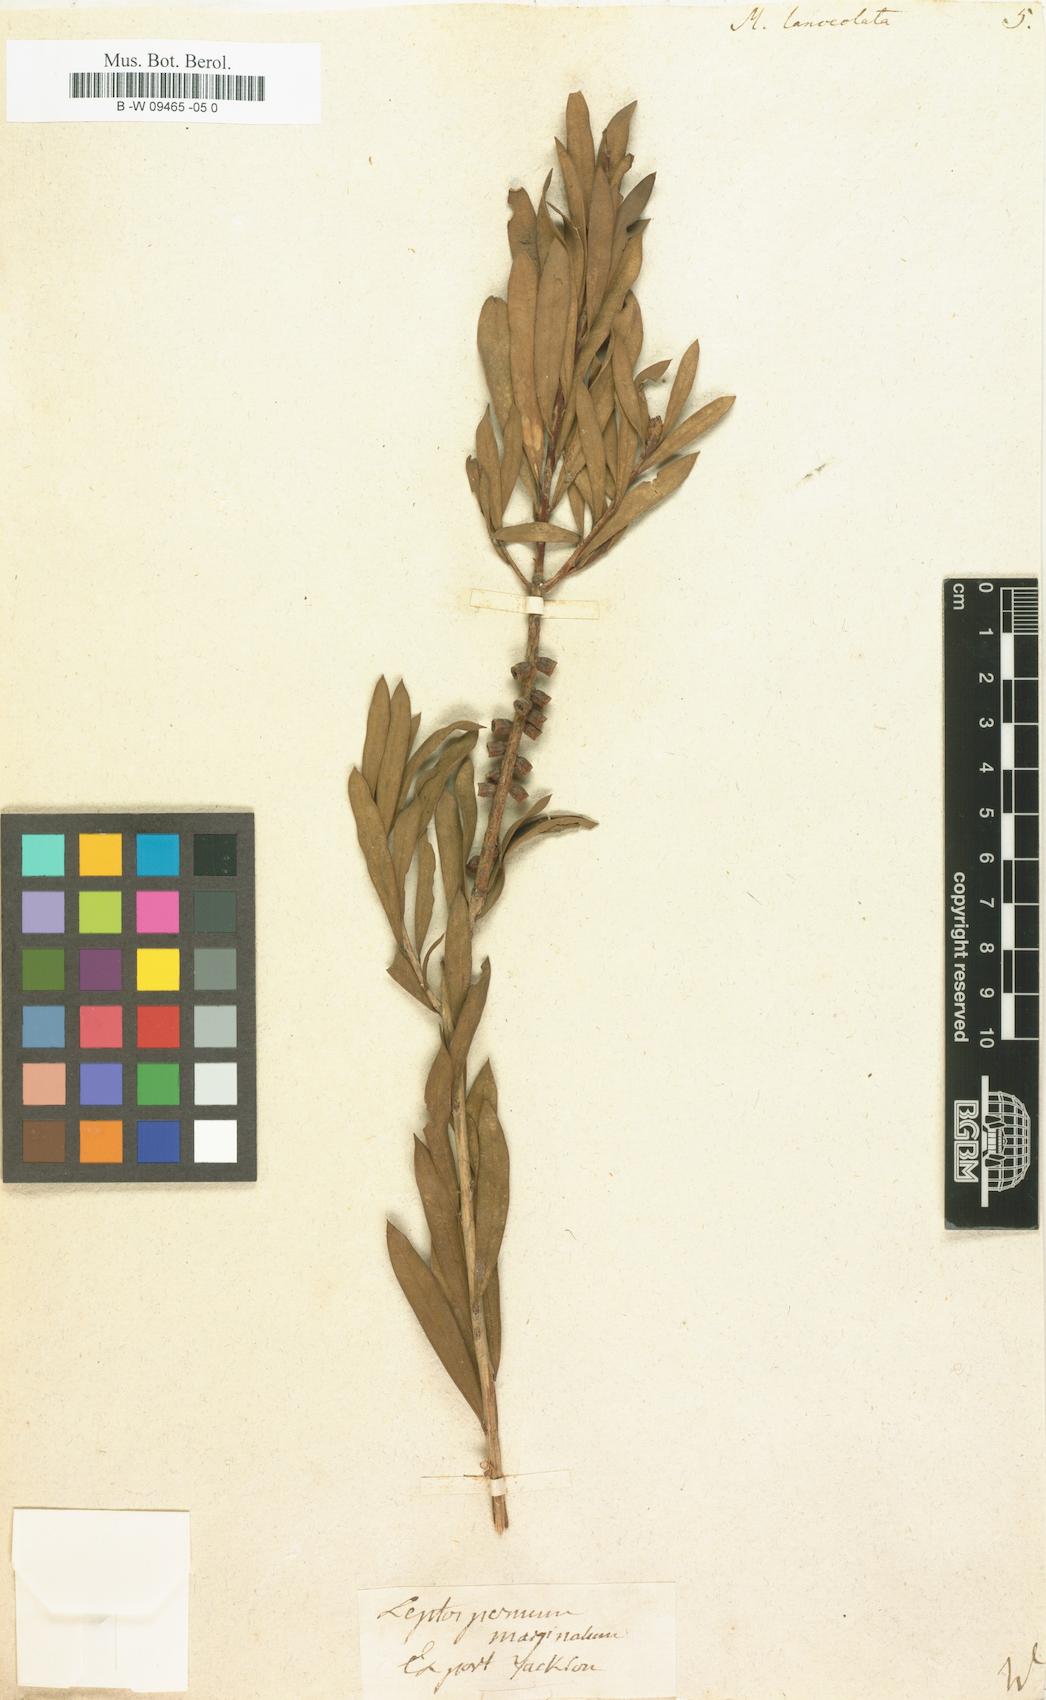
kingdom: Plantae
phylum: Tracheophyta
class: Magnoliopsida
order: Myrtales
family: Myrtaceae
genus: Callistemon
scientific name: Callistemon citrinus
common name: Crimson bottlebrush
